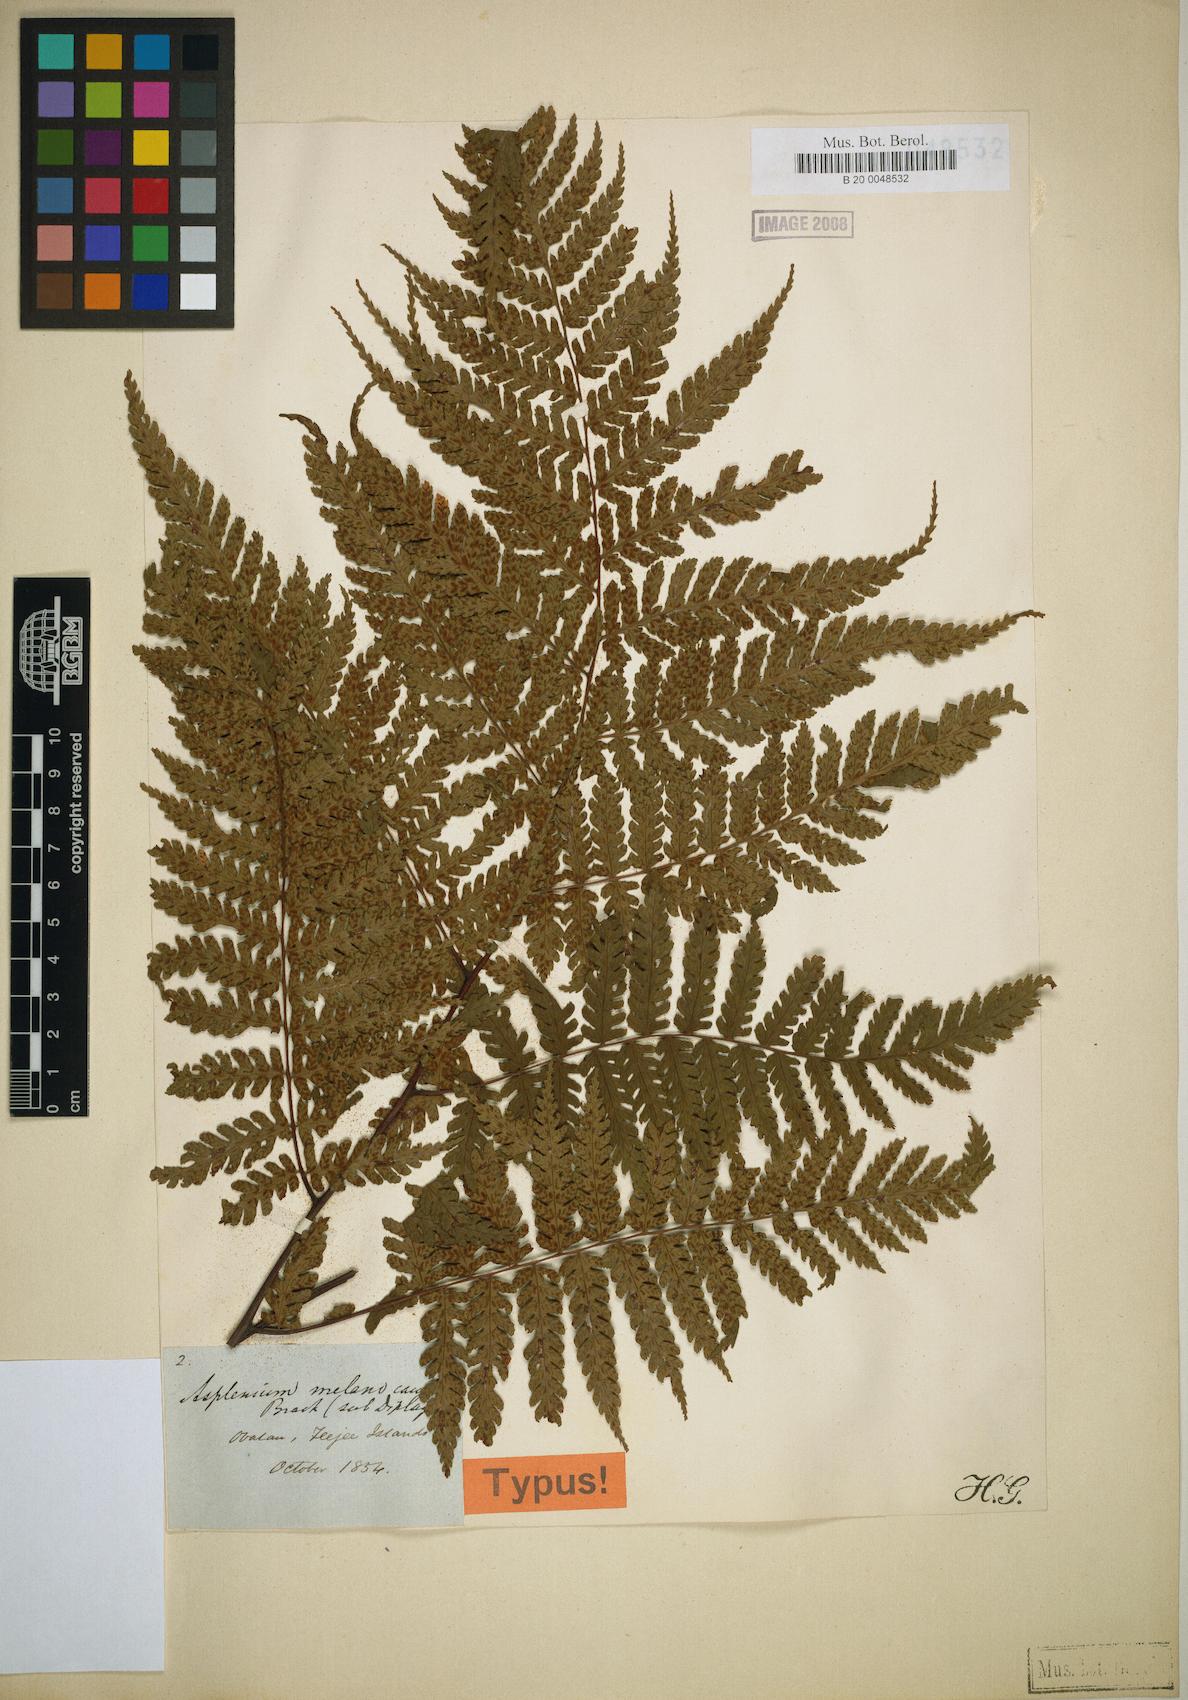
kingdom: Plantae
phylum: Tracheophyta
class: Polypodiopsida
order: Polypodiales
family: Athyriaceae
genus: Diplazium
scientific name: Diplazium melanocaulon
